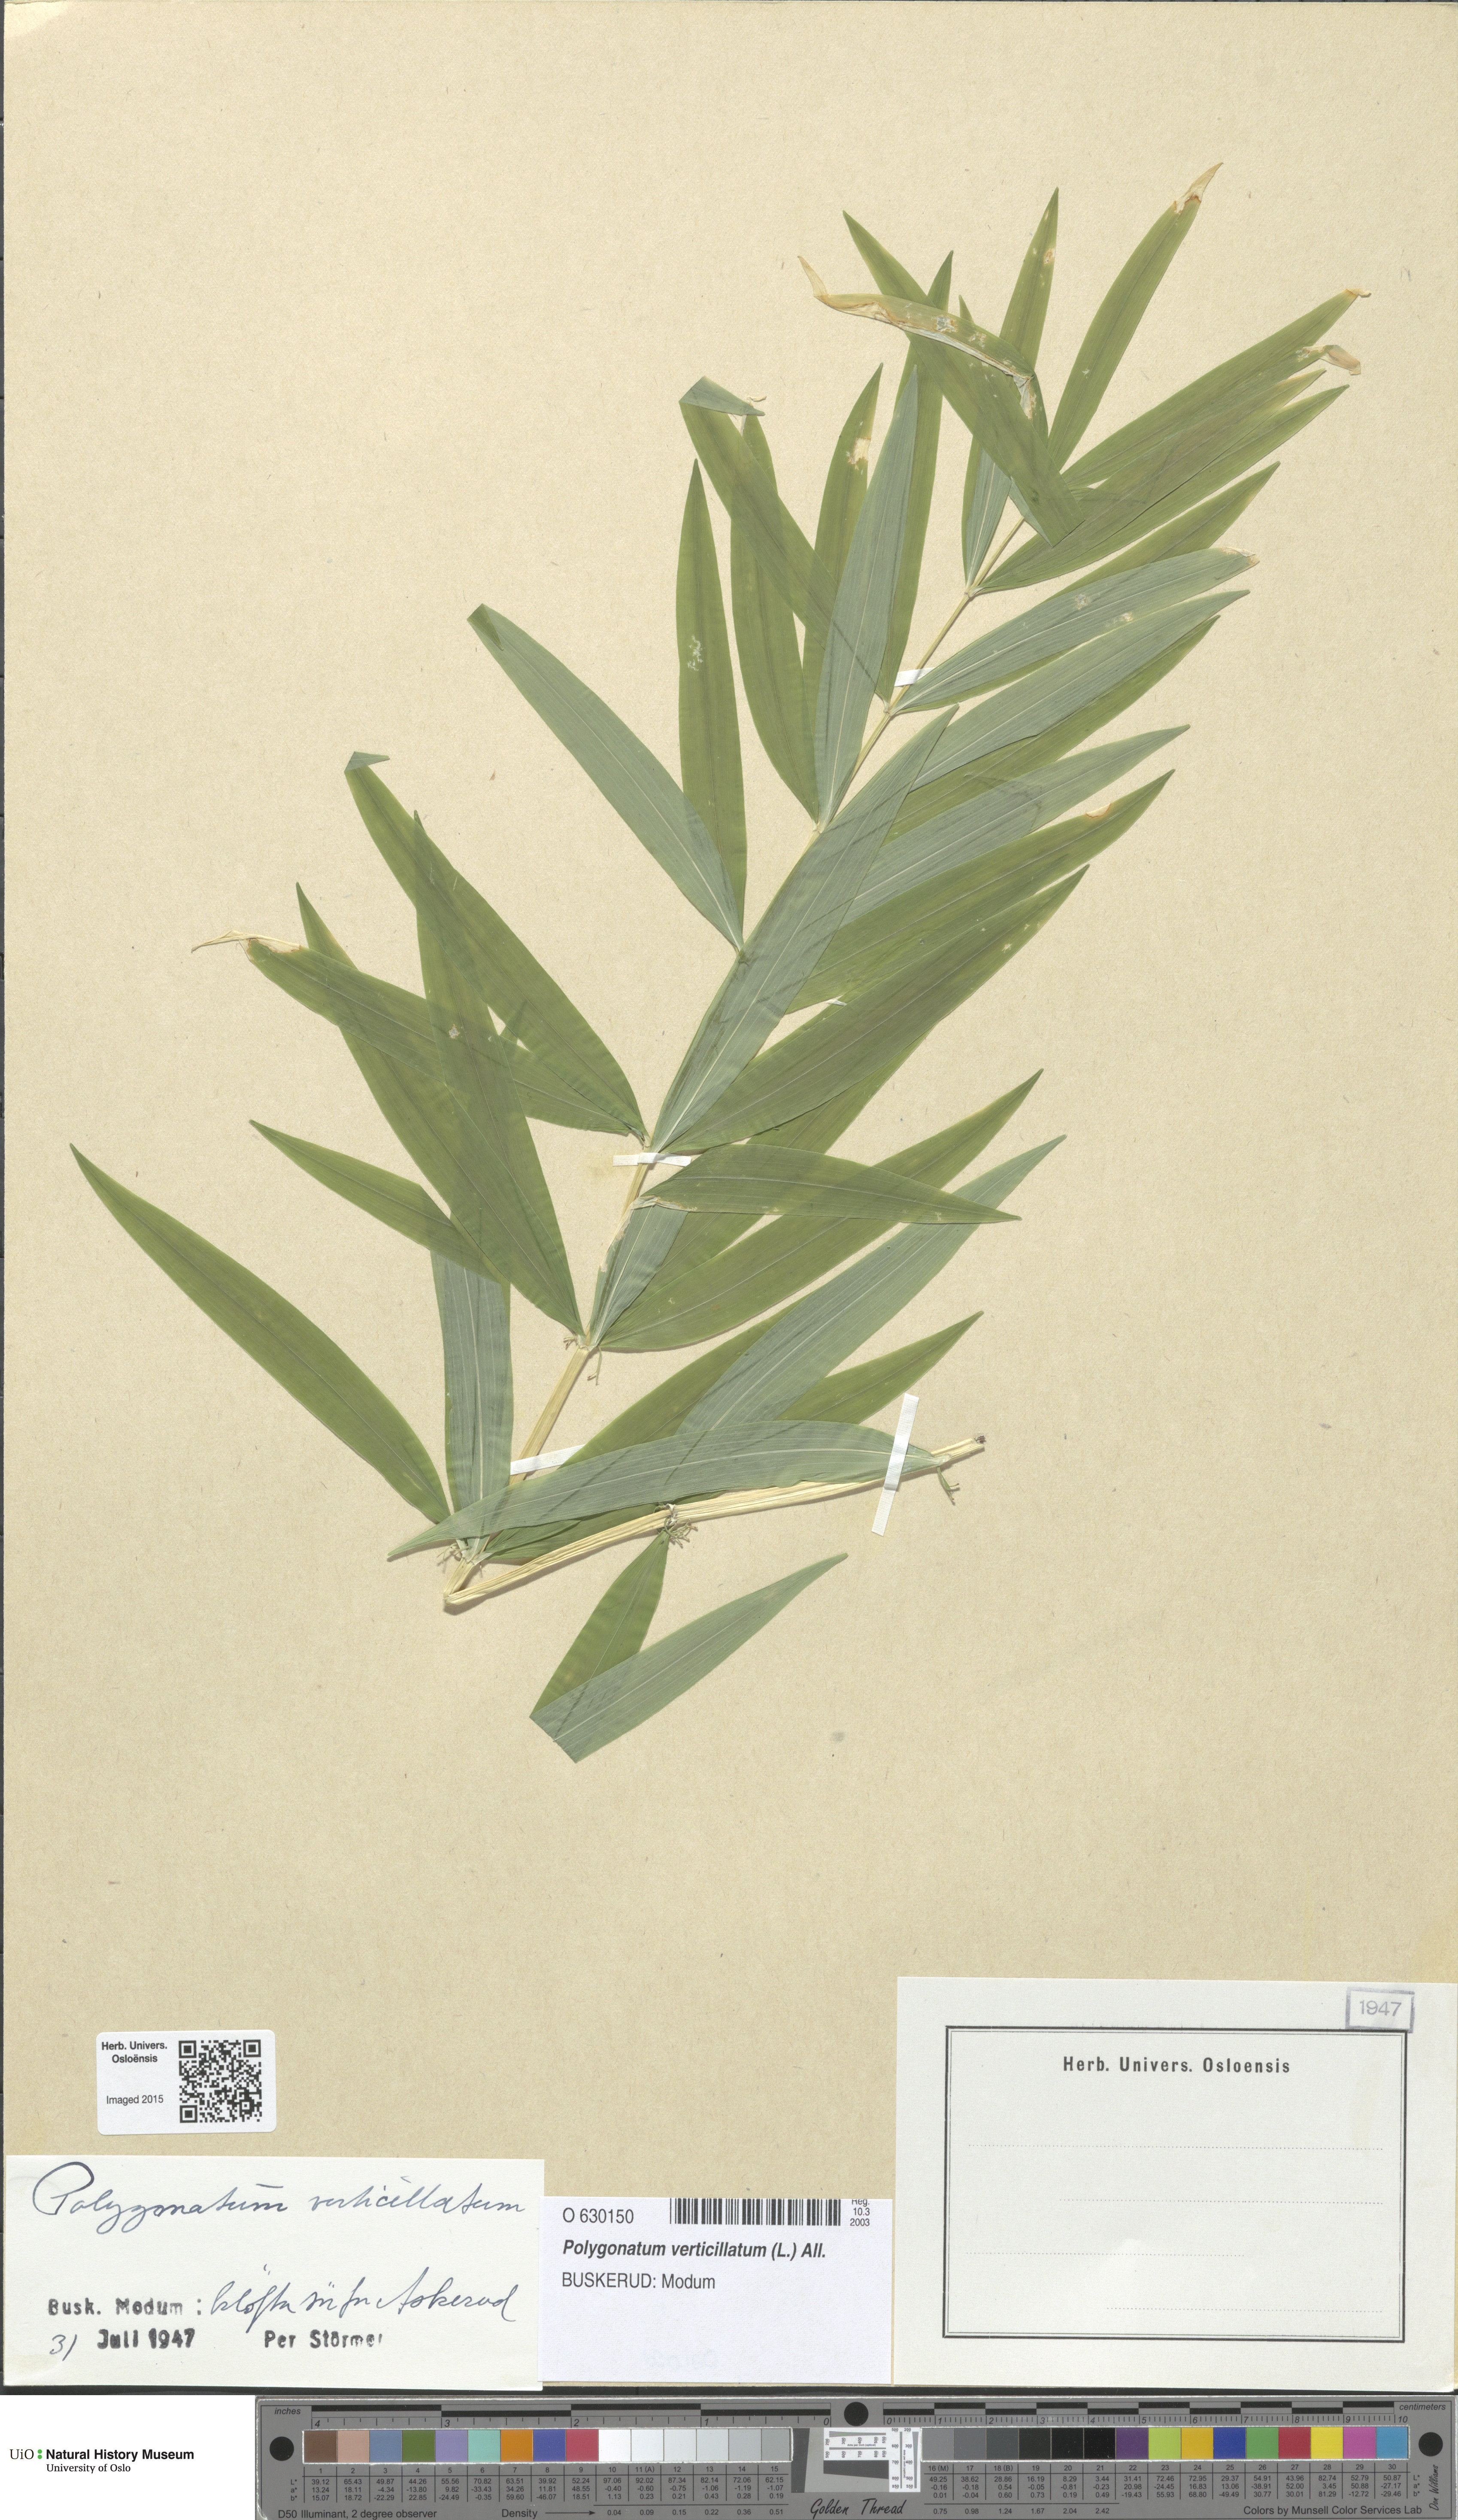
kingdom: Plantae
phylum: Tracheophyta
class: Liliopsida
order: Asparagales
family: Asparagaceae
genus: Polygonatum
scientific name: Polygonatum verticillatum
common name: Whorled solomon's-seal
